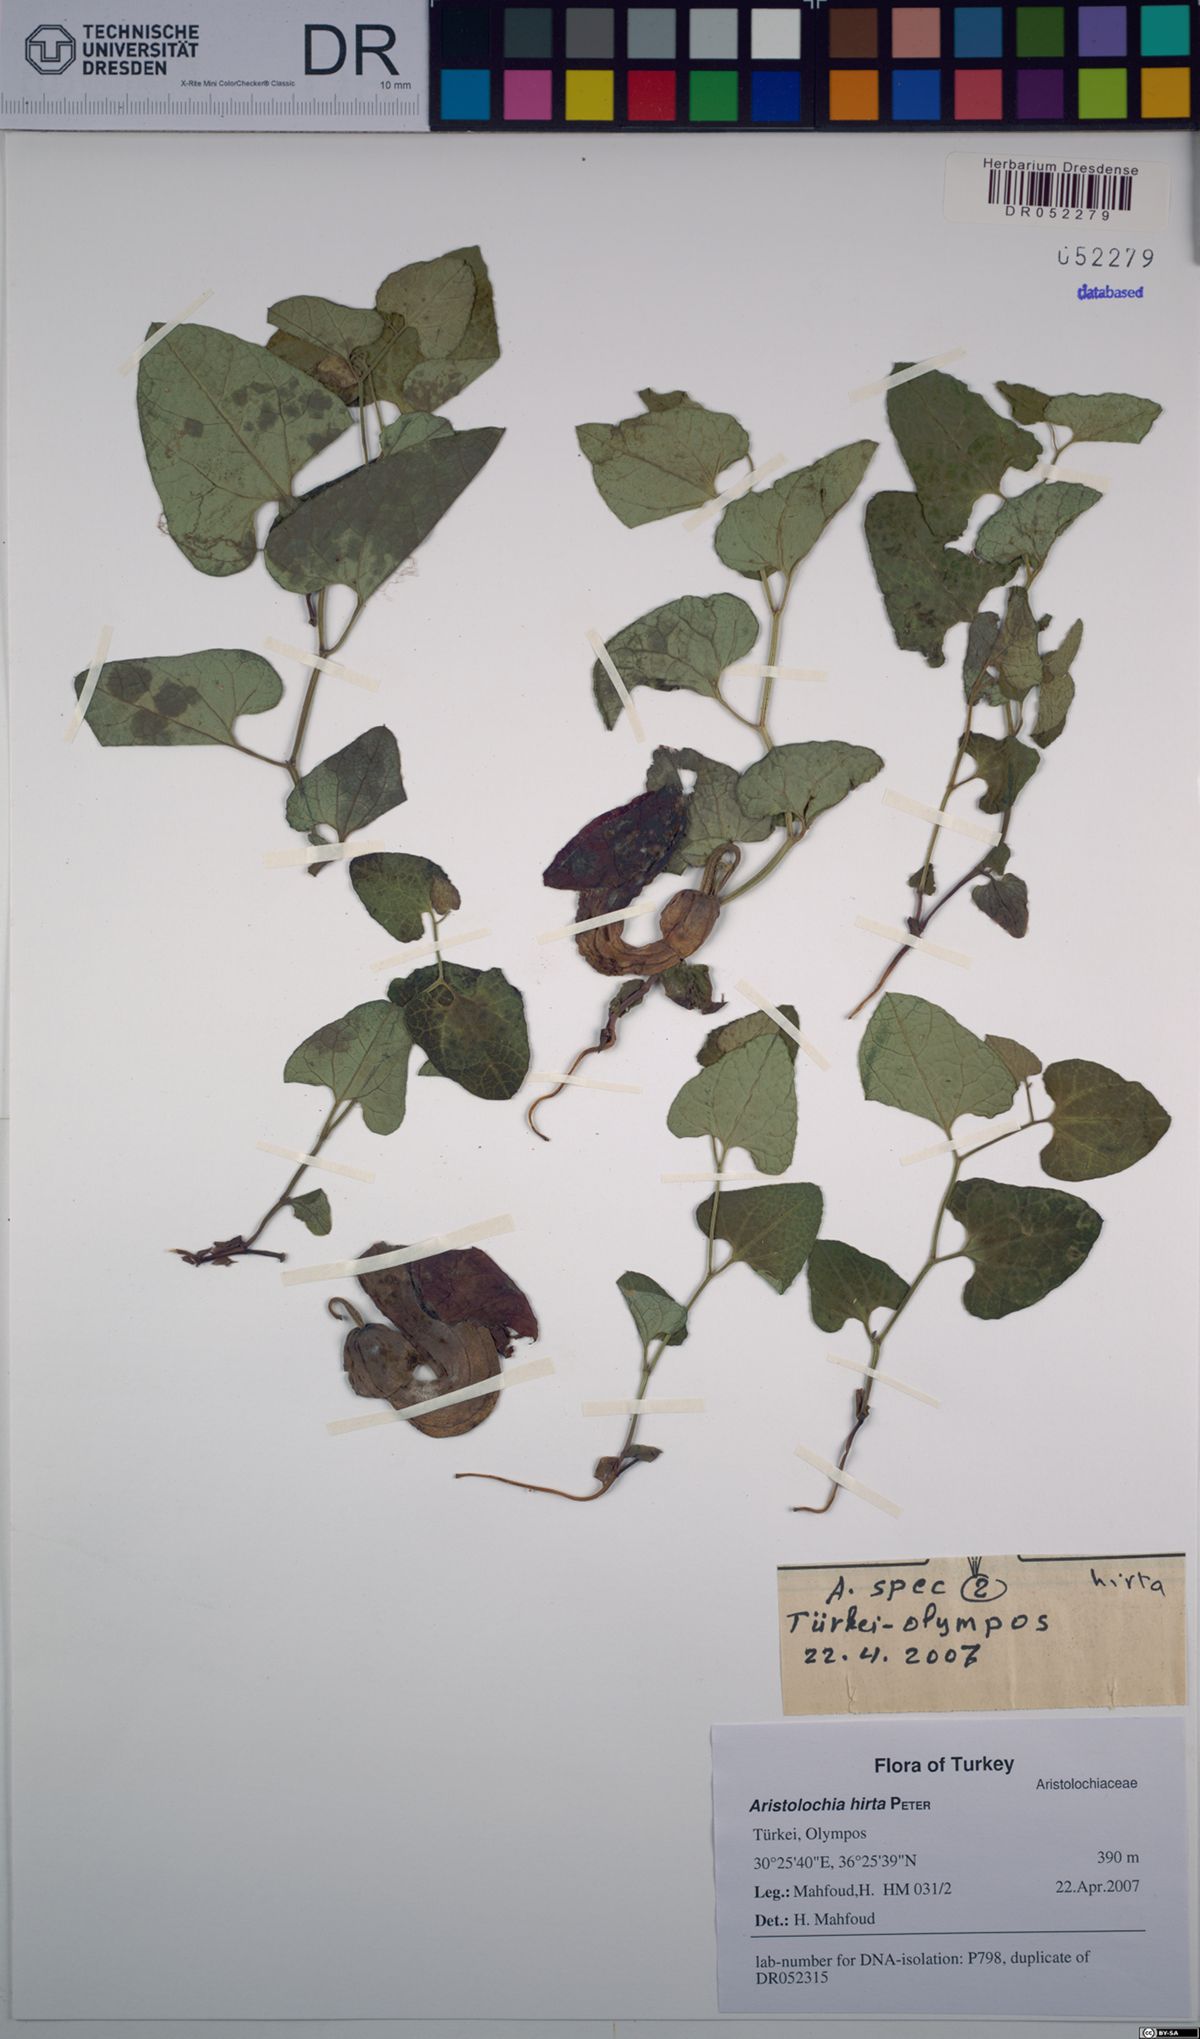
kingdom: Plantae
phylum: Tracheophyta
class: Magnoliopsida
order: Piperales
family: Aristolochiaceae
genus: Aristolochia
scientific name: Aristolochia hockii
